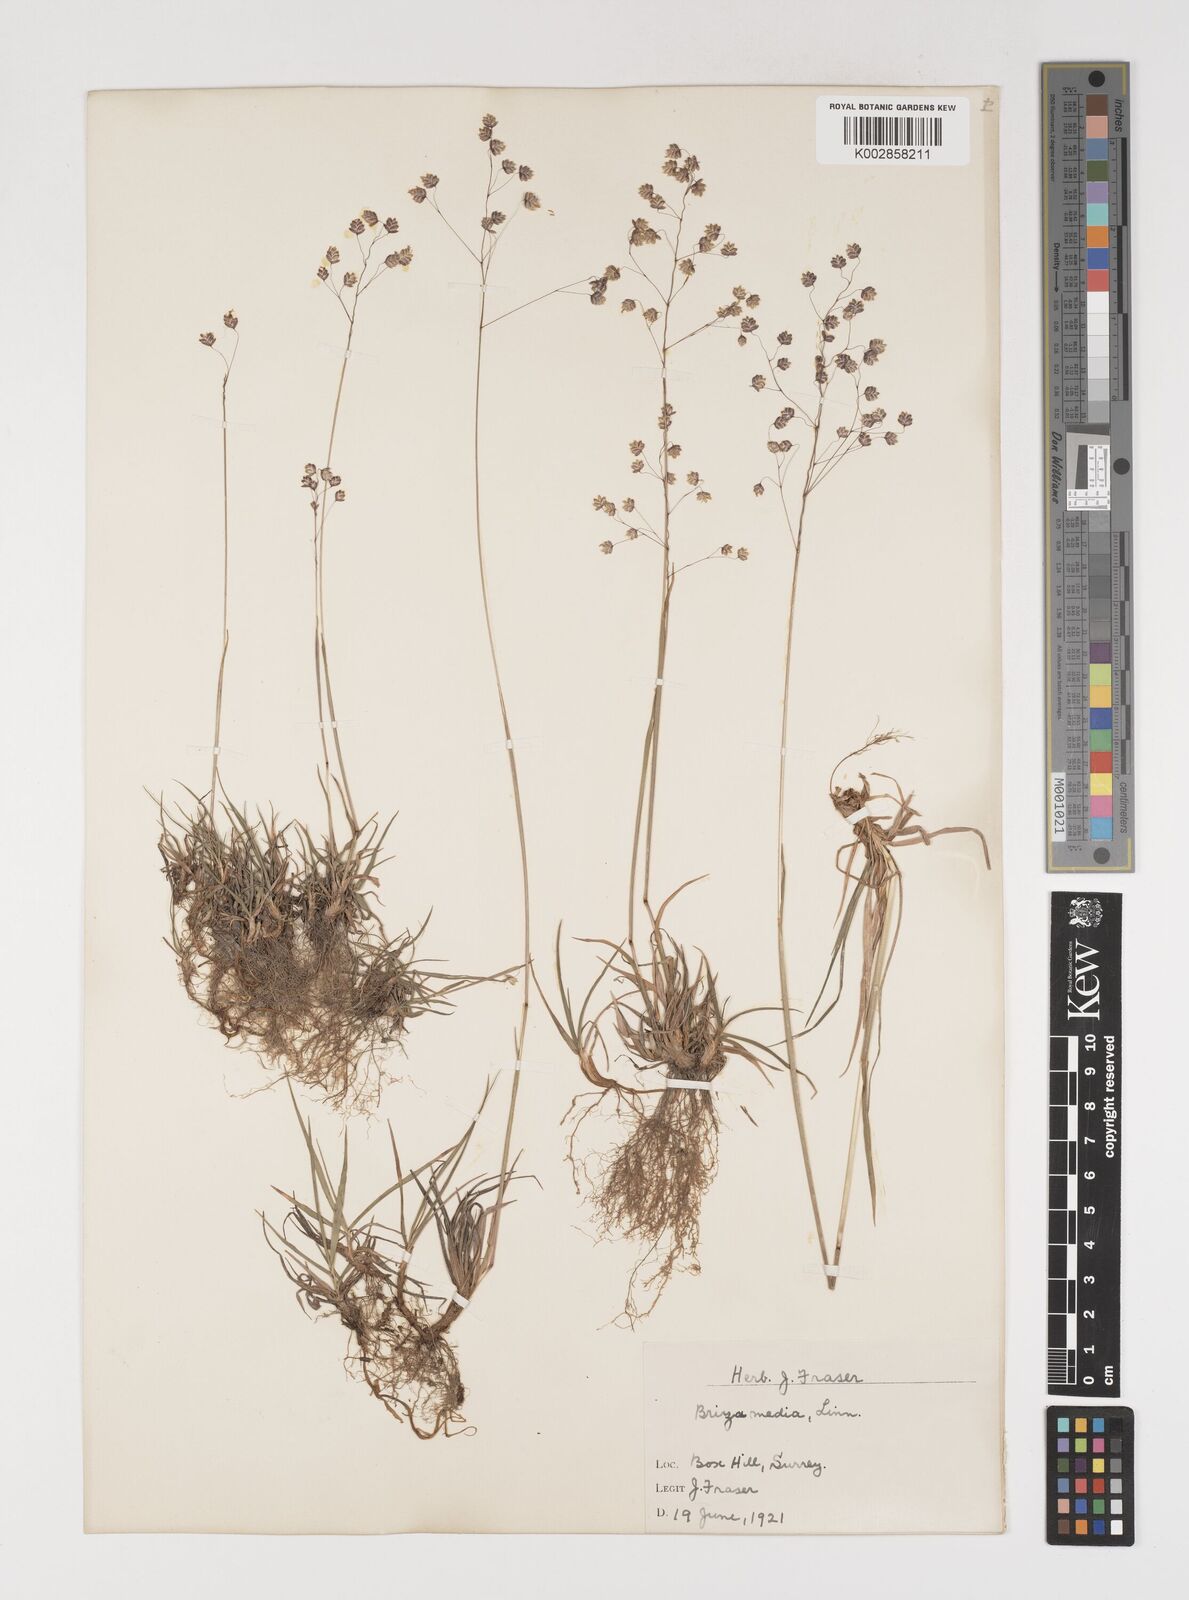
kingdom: Plantae
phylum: Tracheophyta
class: Liliopsida
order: Poales
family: Poaceae
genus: Briza
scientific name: Briza media
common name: Quaking grass
